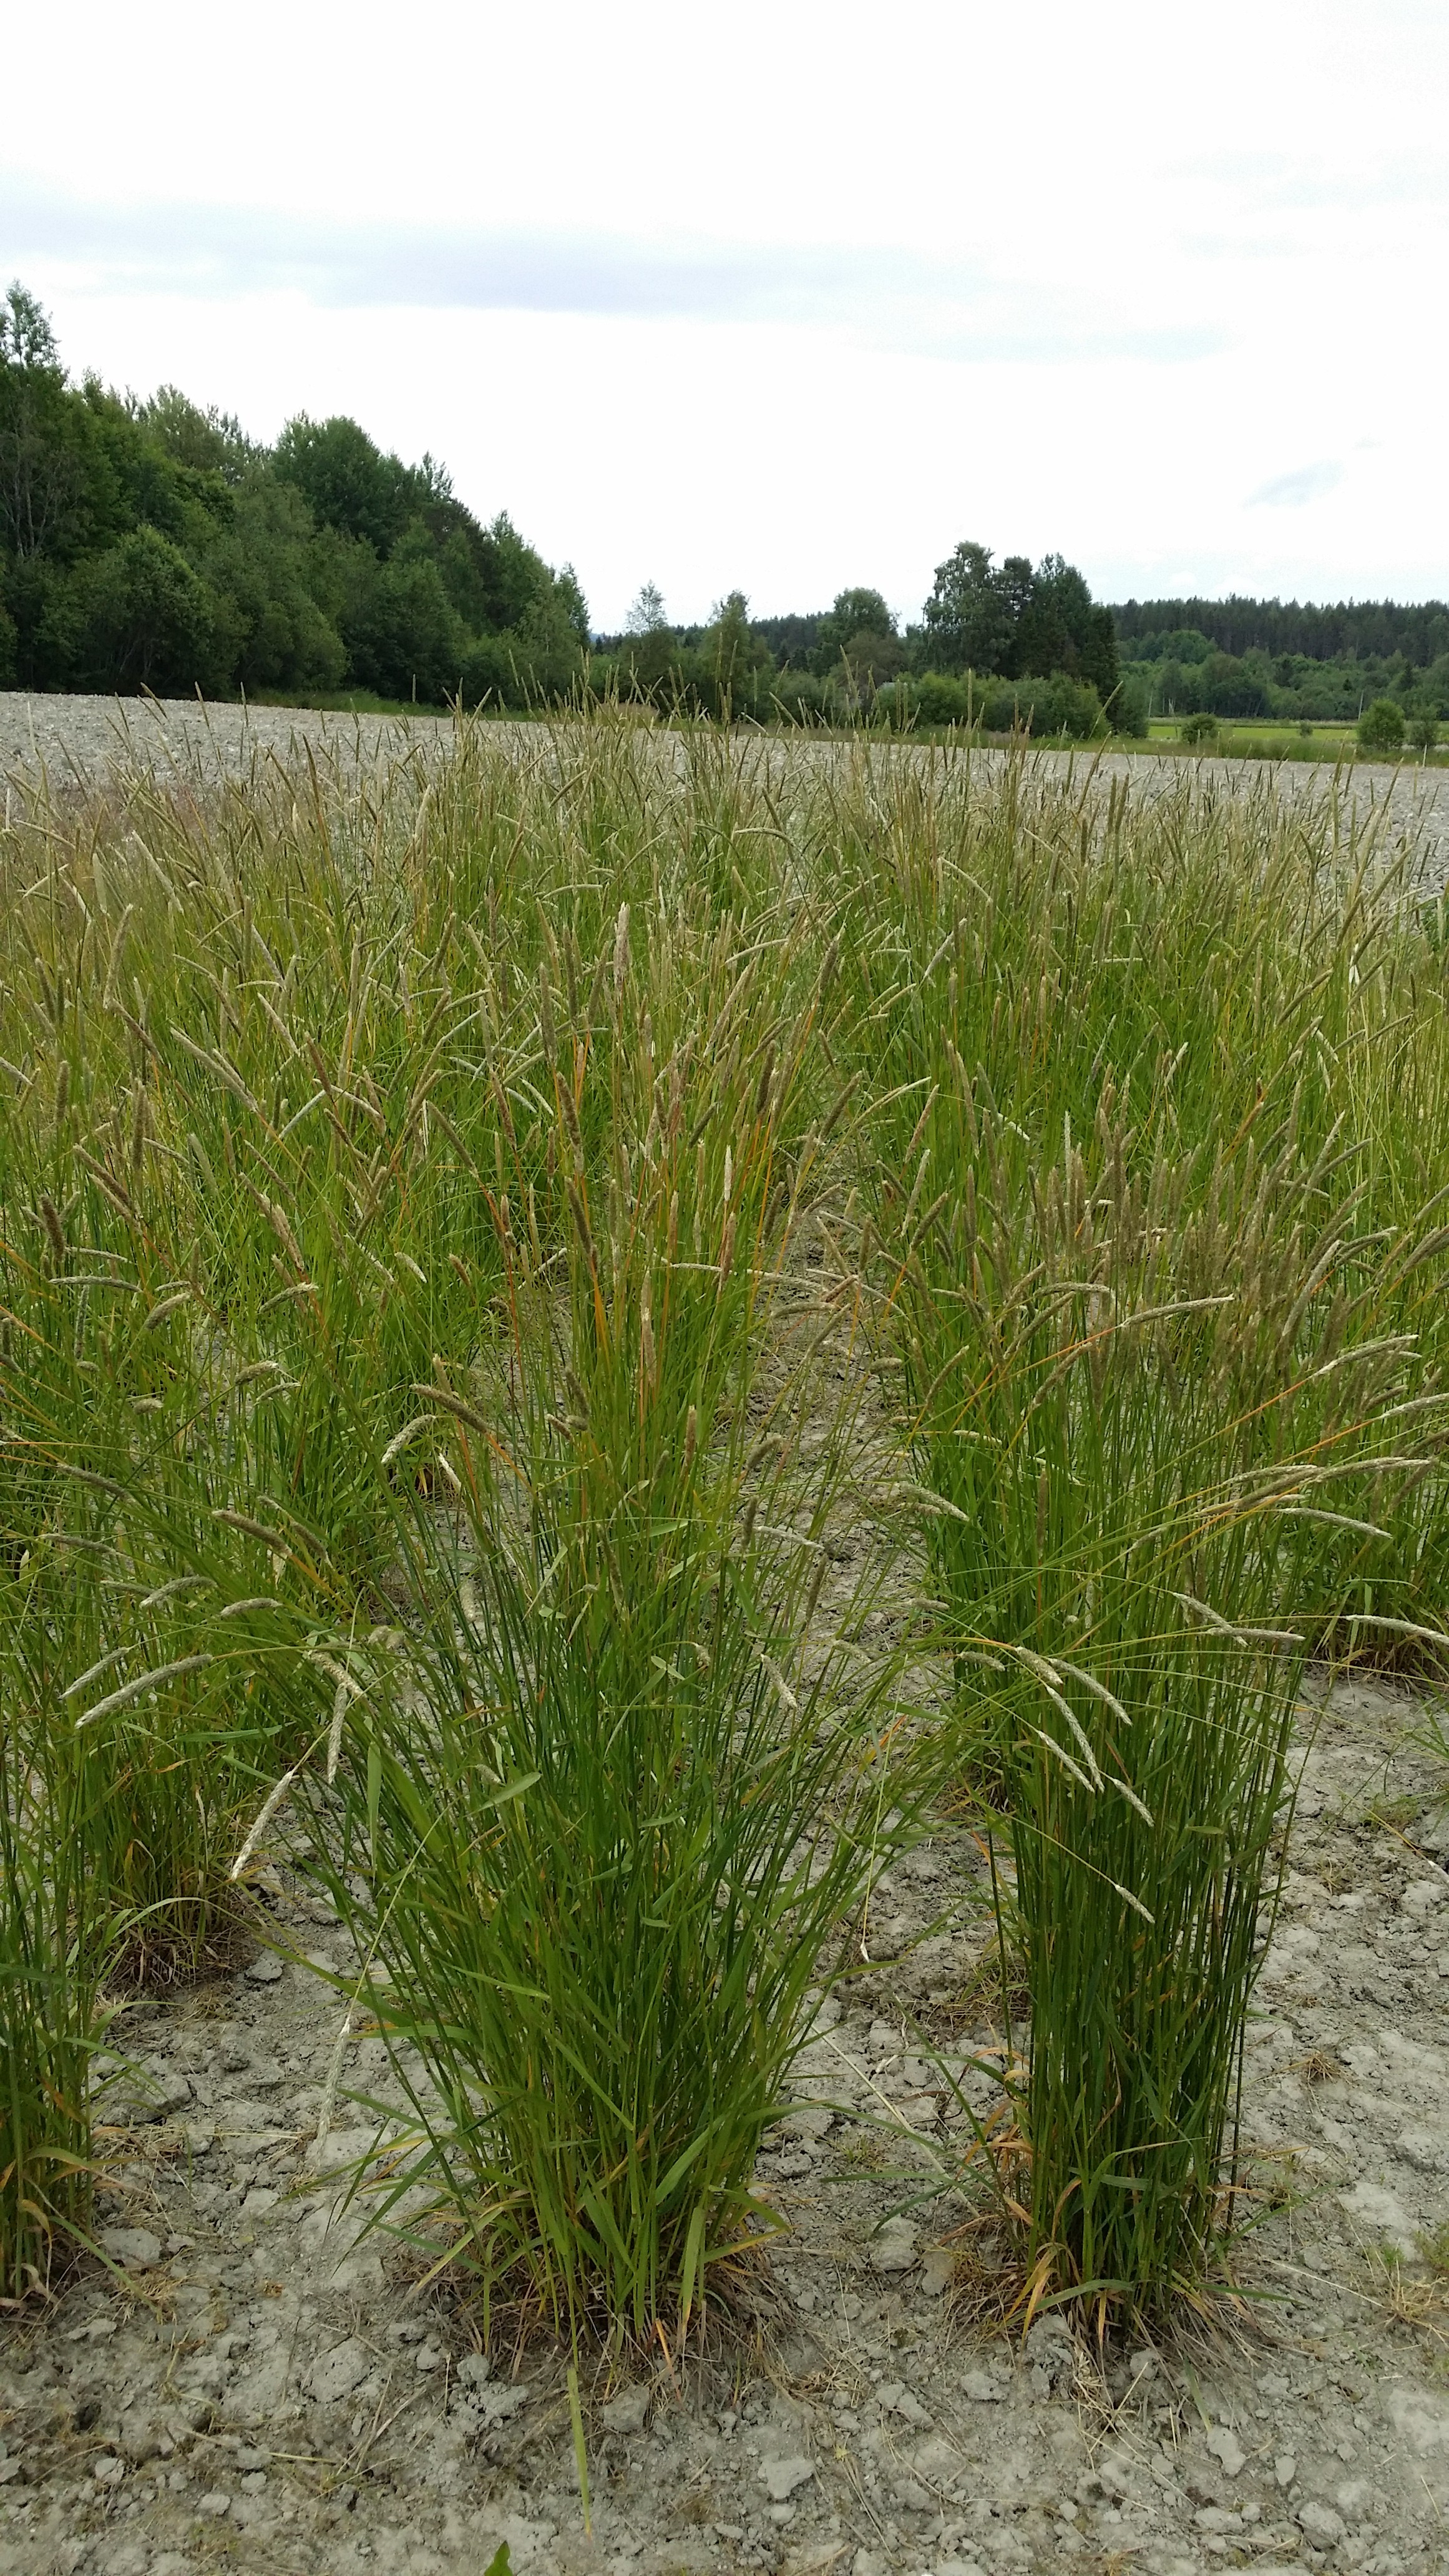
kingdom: Plantae
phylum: Tracheophyta
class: Liliopsida
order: Poales
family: Poaceae
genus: Alopecurus
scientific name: Alopecurus pratensis
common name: Meadow foxtail
